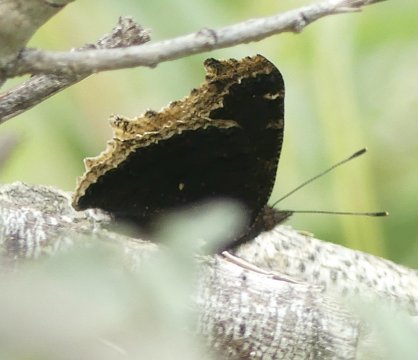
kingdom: Animalia
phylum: Arthropoda
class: Insecta
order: Lepidoptera
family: Nymphalidae
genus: Nymphalis
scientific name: Nymphalis antiopa
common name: Mourning Cloak
